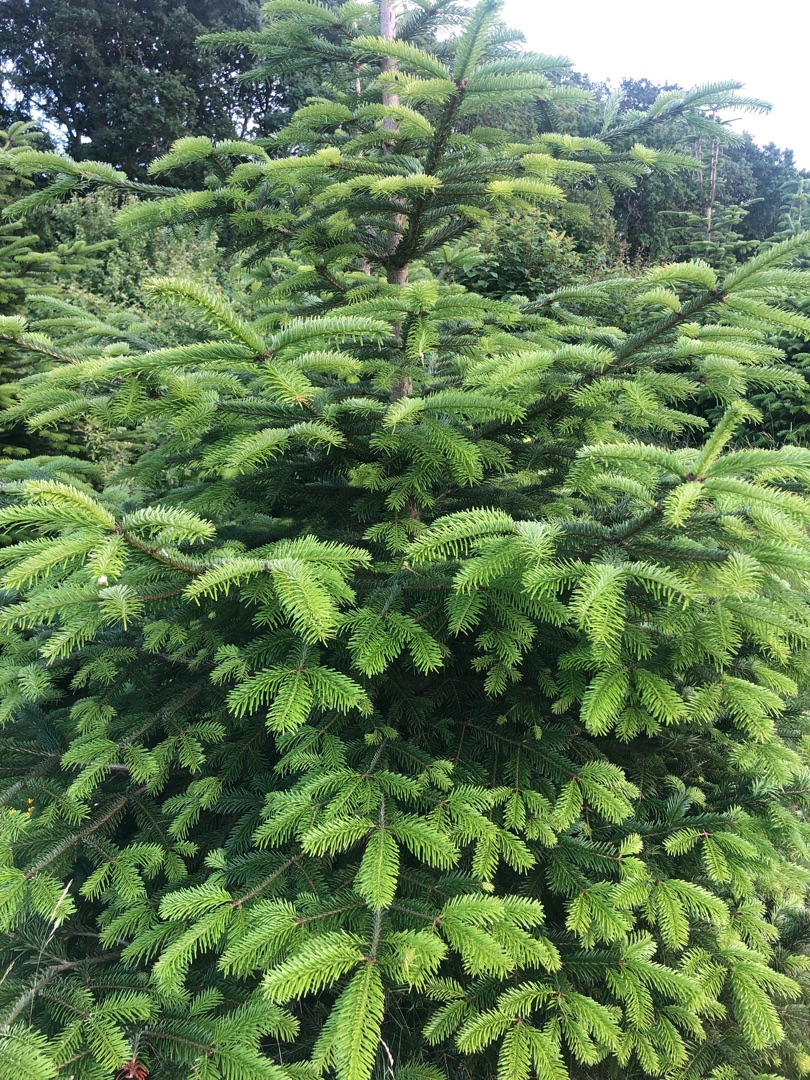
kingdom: Plantae
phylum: Tracheophyta
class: Pinopsida
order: Pinales
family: Pinaceae
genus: Abies
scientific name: Abies nordmanniana
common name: Nordmannsgran
